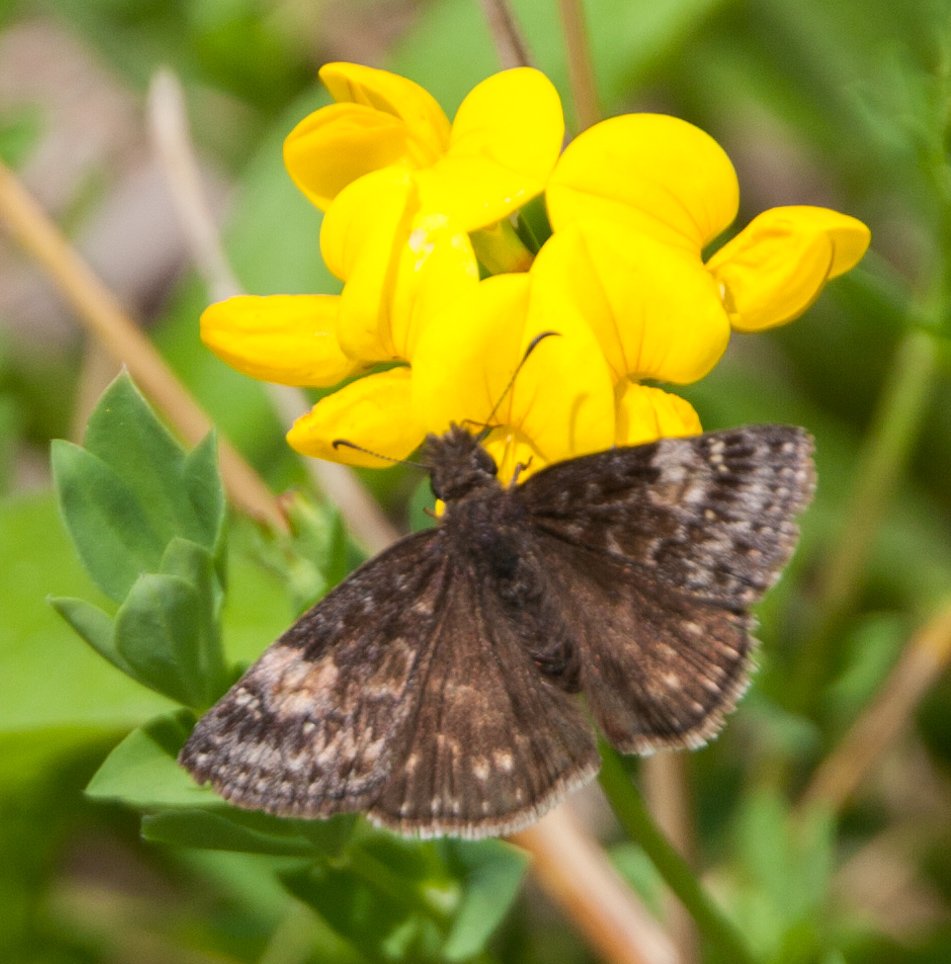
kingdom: Animalia
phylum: Arthropoda
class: Insecta
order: Lepidoptera
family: Hesperiidae
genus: Gesta
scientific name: Gesta
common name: Wild Indigo Duskywing
